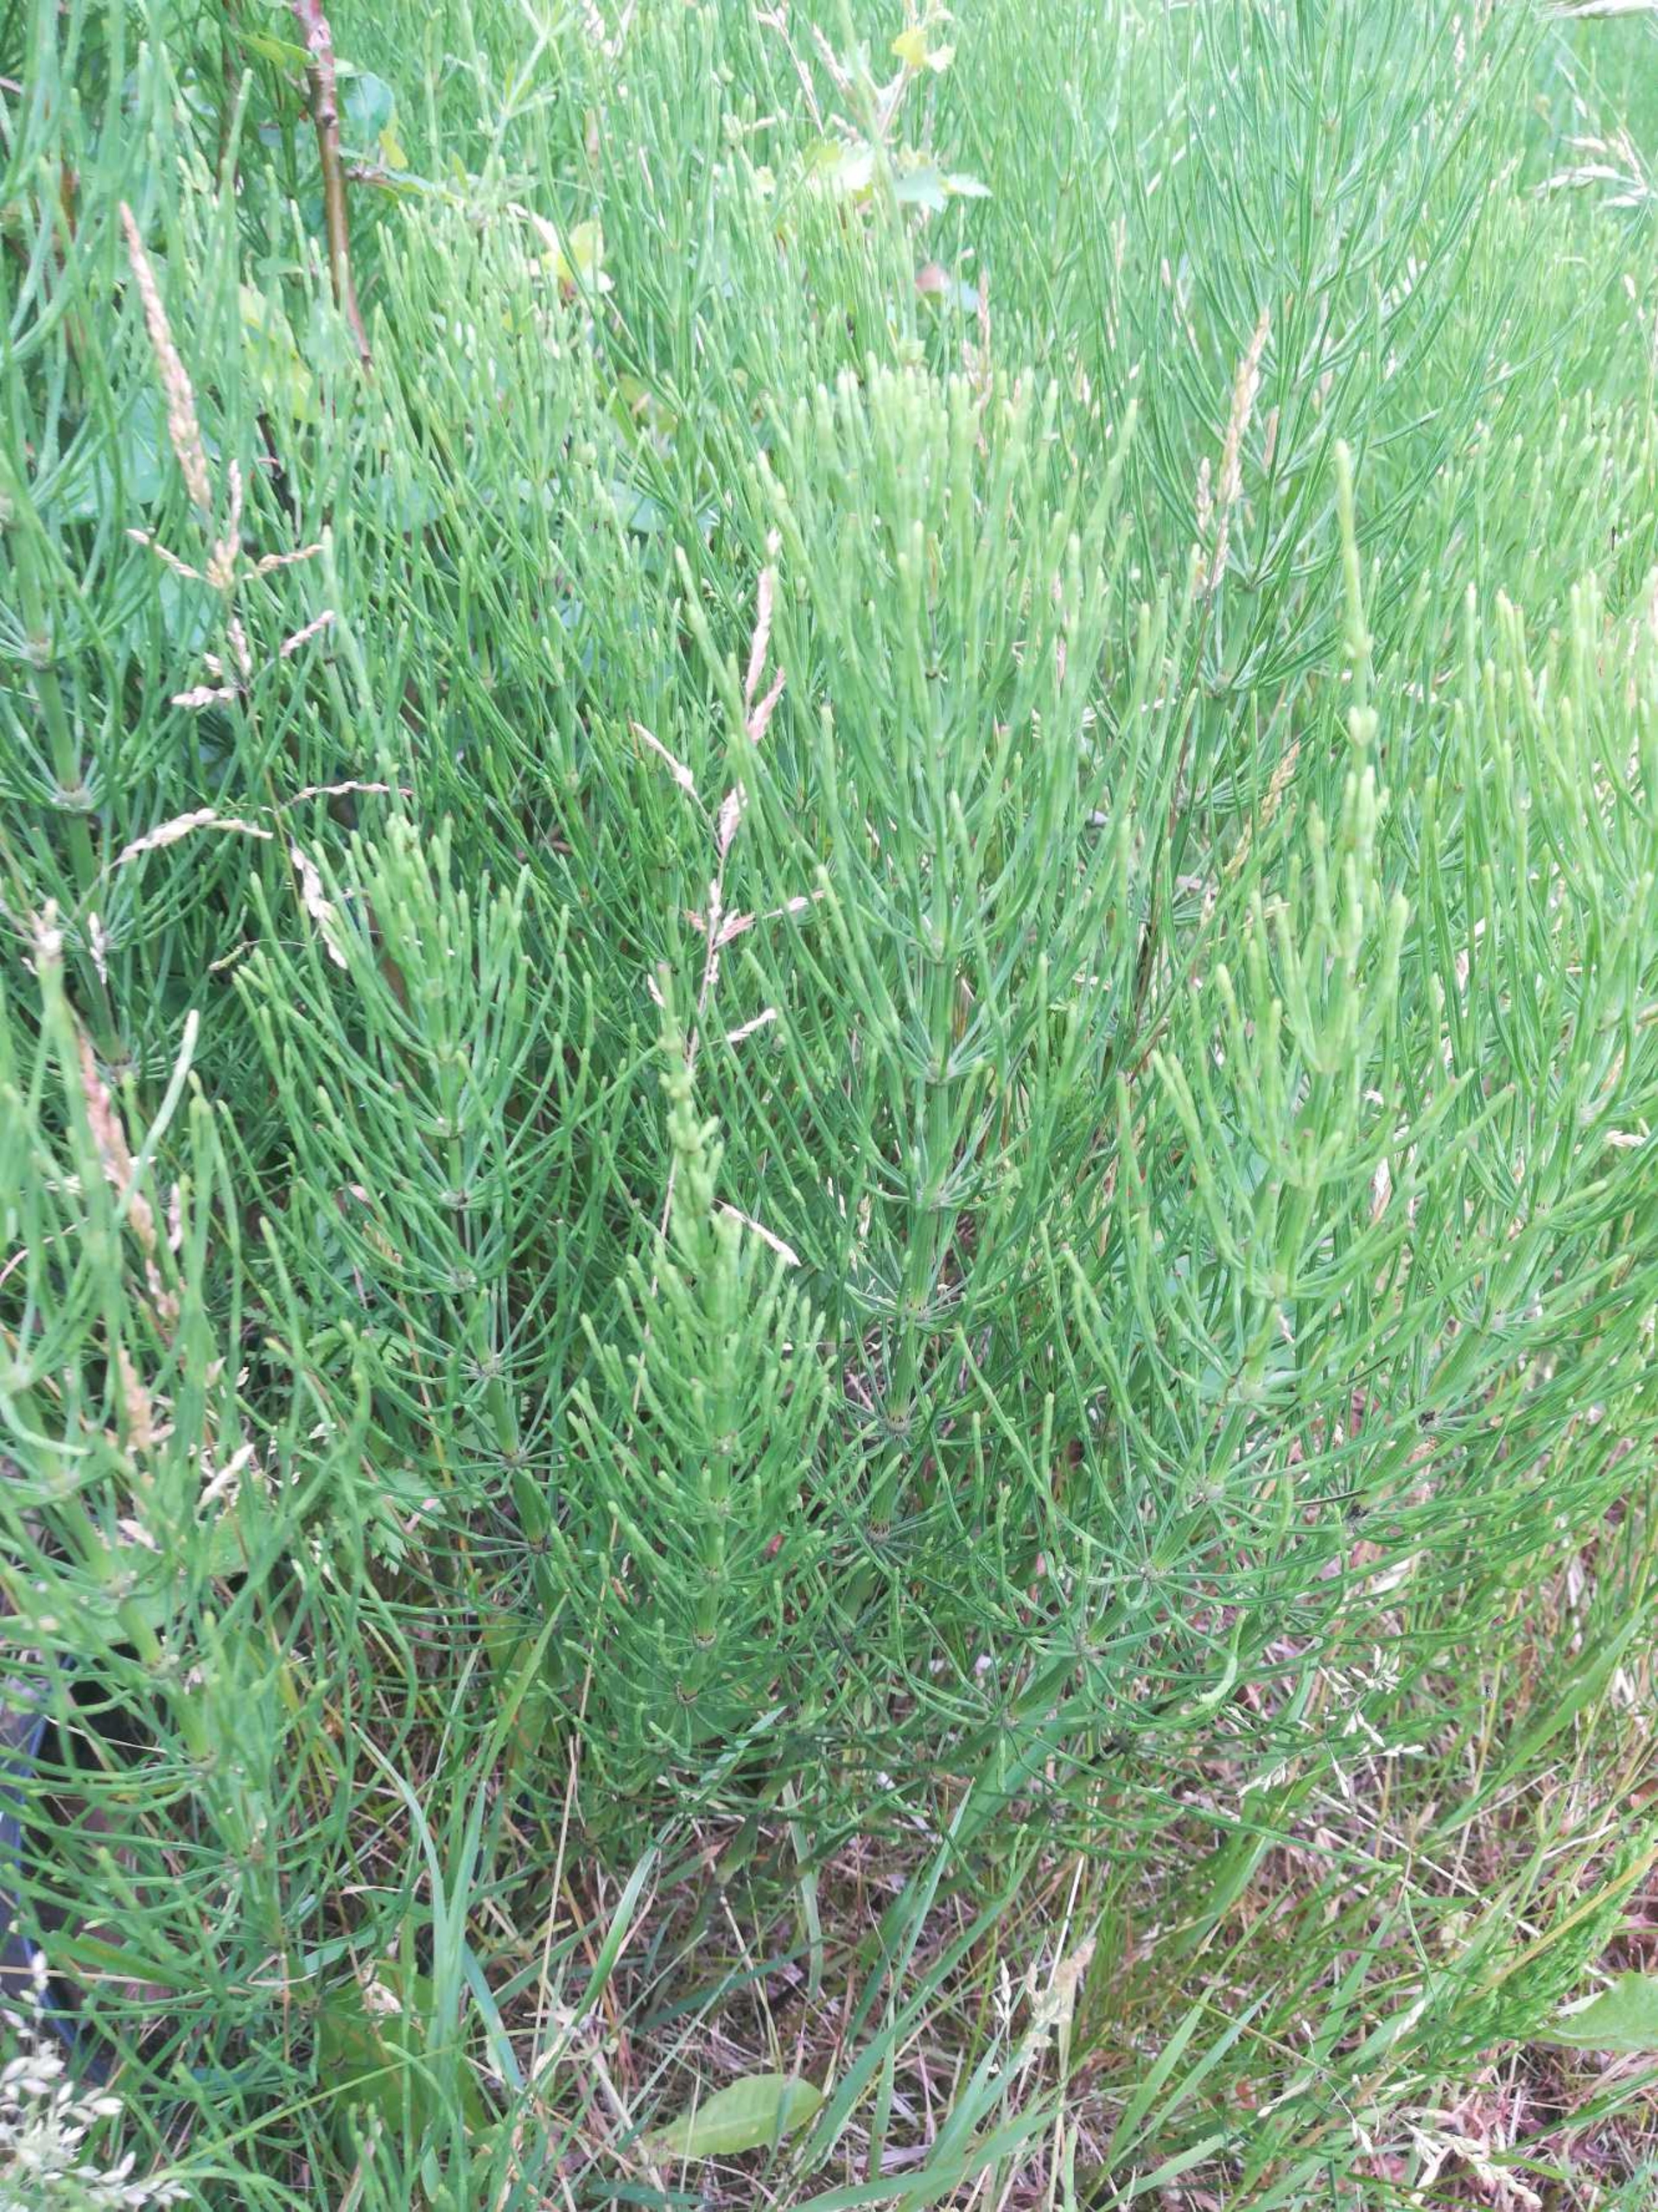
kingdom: Plantae
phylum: Tracheophyta
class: Polypodiopsida
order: Equisetales
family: Equisetaceae
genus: Equisetum
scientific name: Equisetum arvense
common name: Ager-padderok
